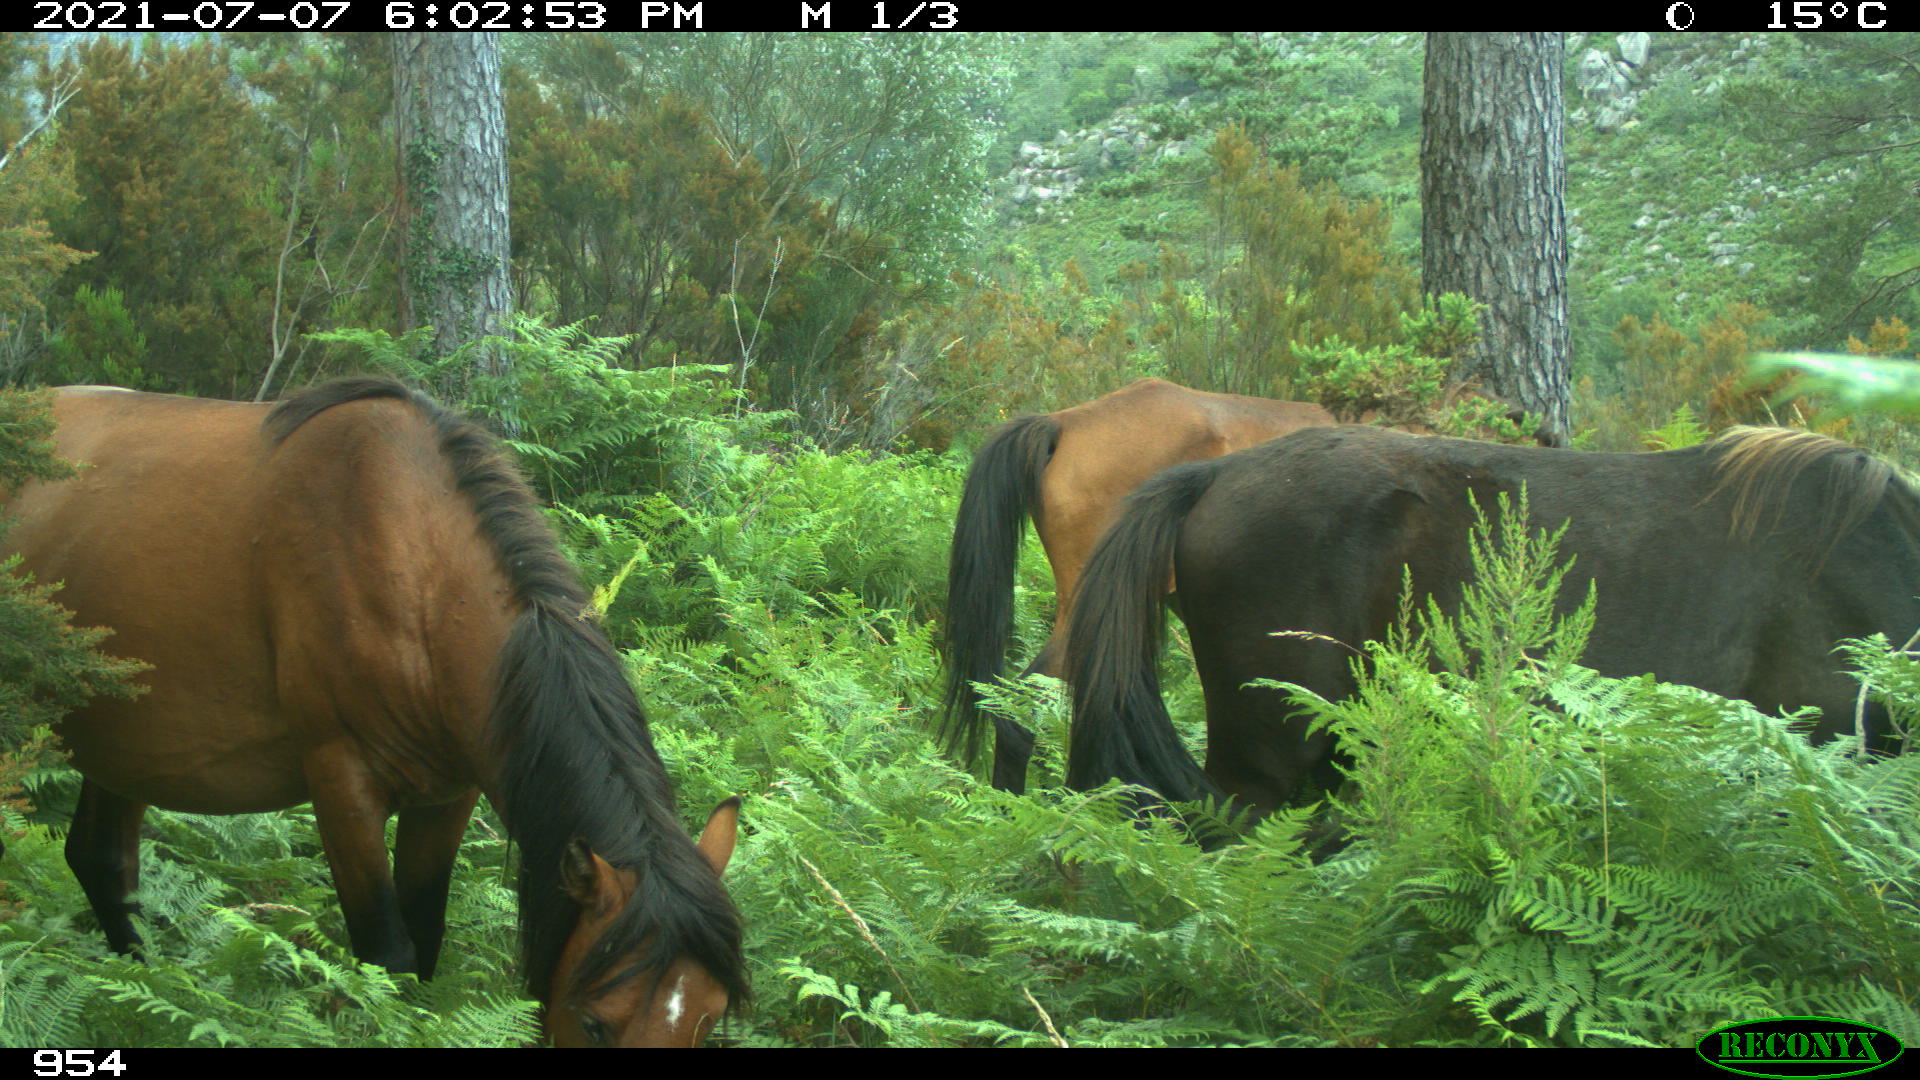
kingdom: Animalia
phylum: Chordata
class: Mammalia
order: Perissodactyla
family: Equidae
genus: Equus
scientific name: Equus caballus
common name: Horse
